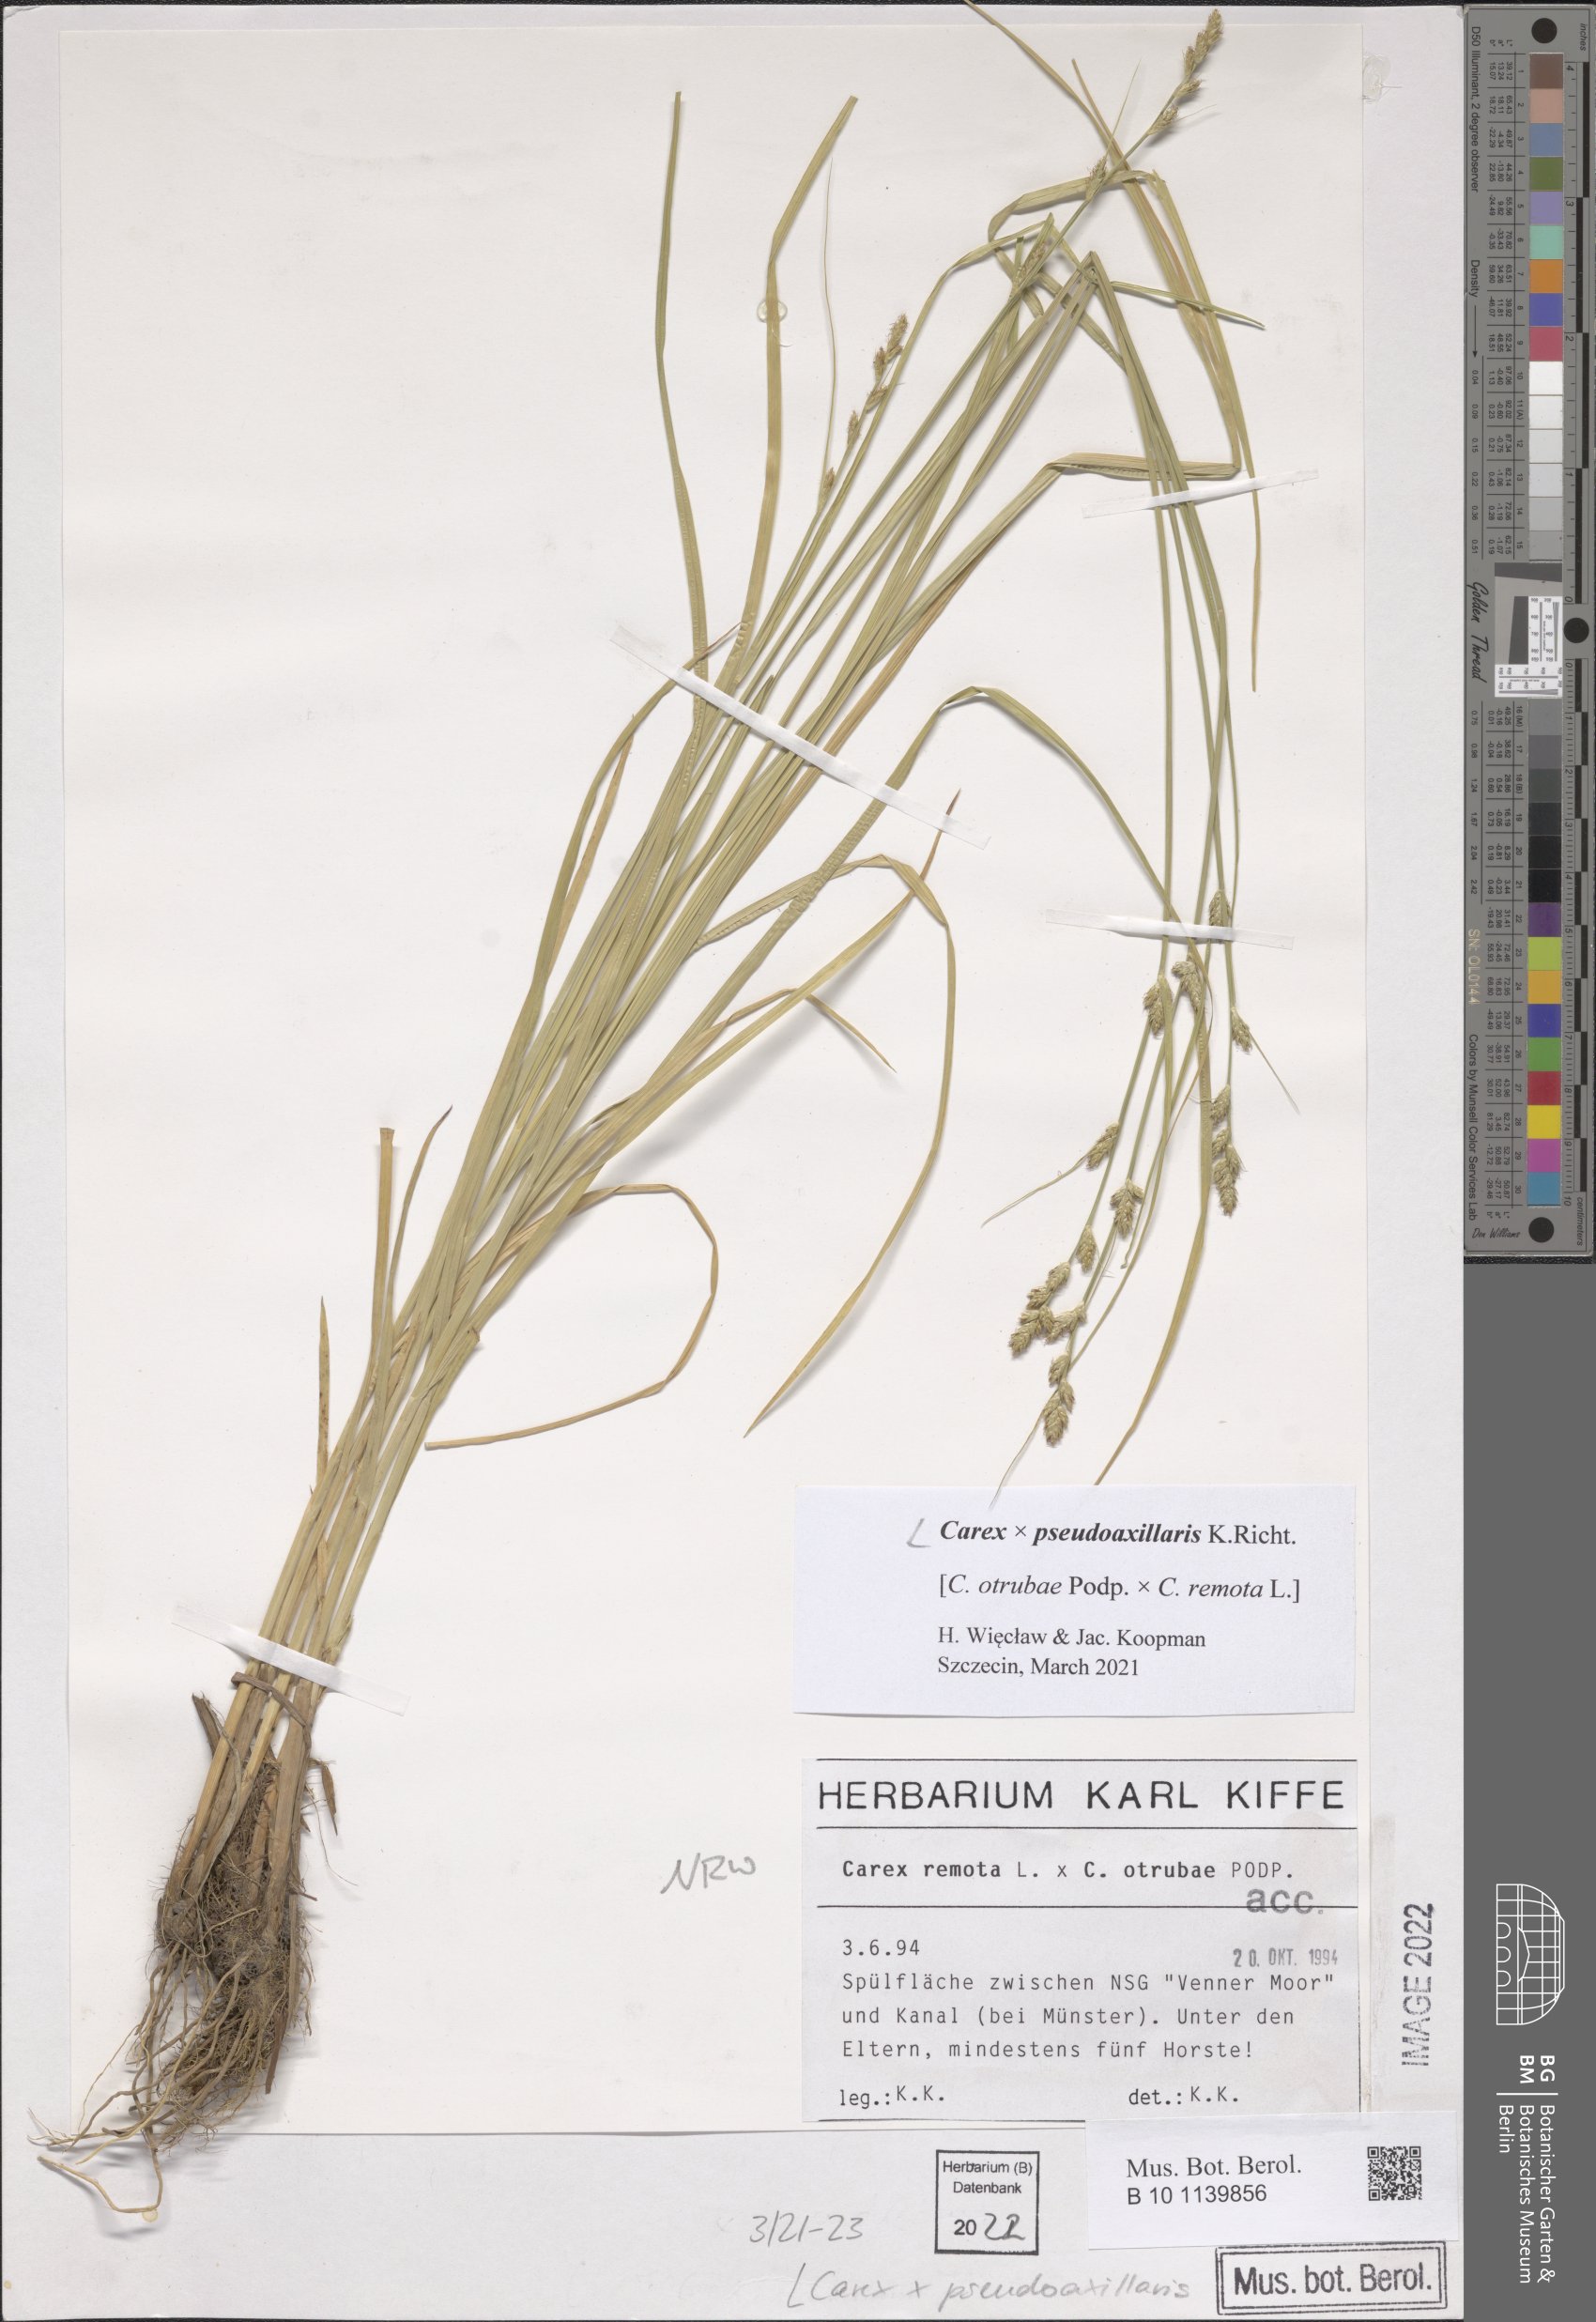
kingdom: Plantae
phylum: Tracheophyta
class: Liliopsida
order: Poales
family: Cyperaceae
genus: Carex
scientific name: Carex pseudoaxillaris
